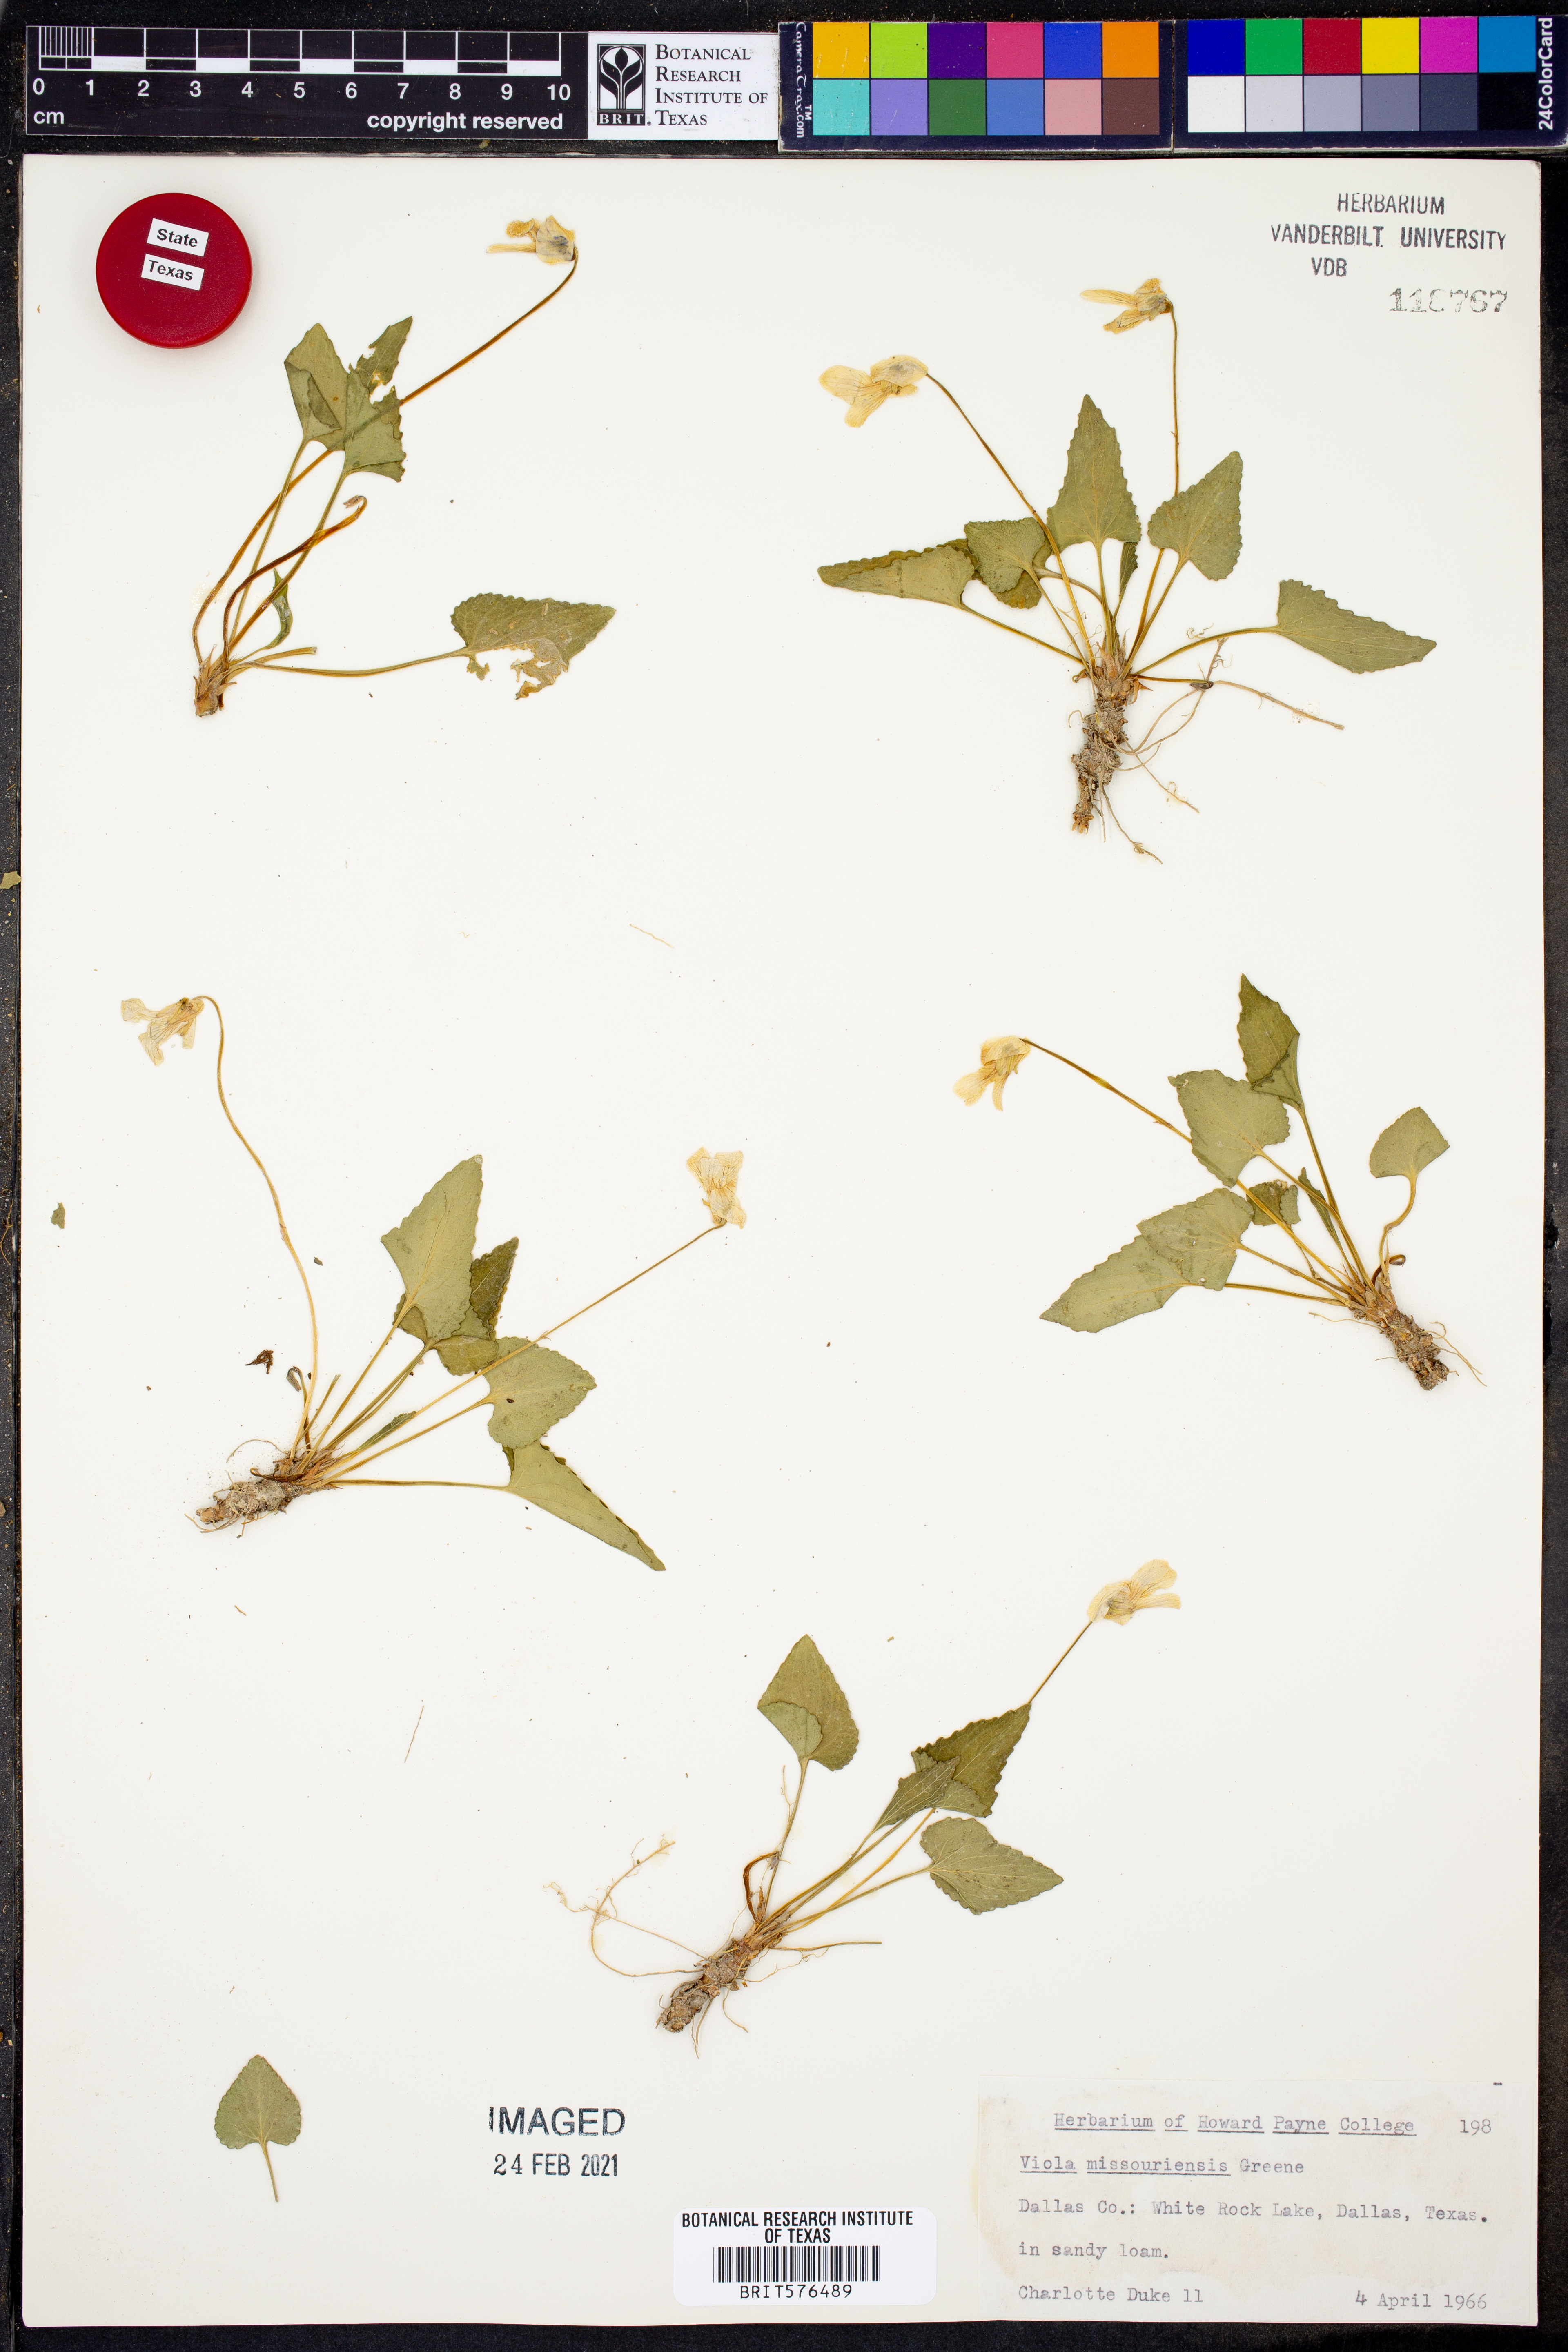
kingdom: Plantae
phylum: Tracheophyta
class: Magnoliopsida
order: Malpighiales
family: Violaceae
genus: Viola
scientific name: Viola missouriensis
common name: Missouri violet
